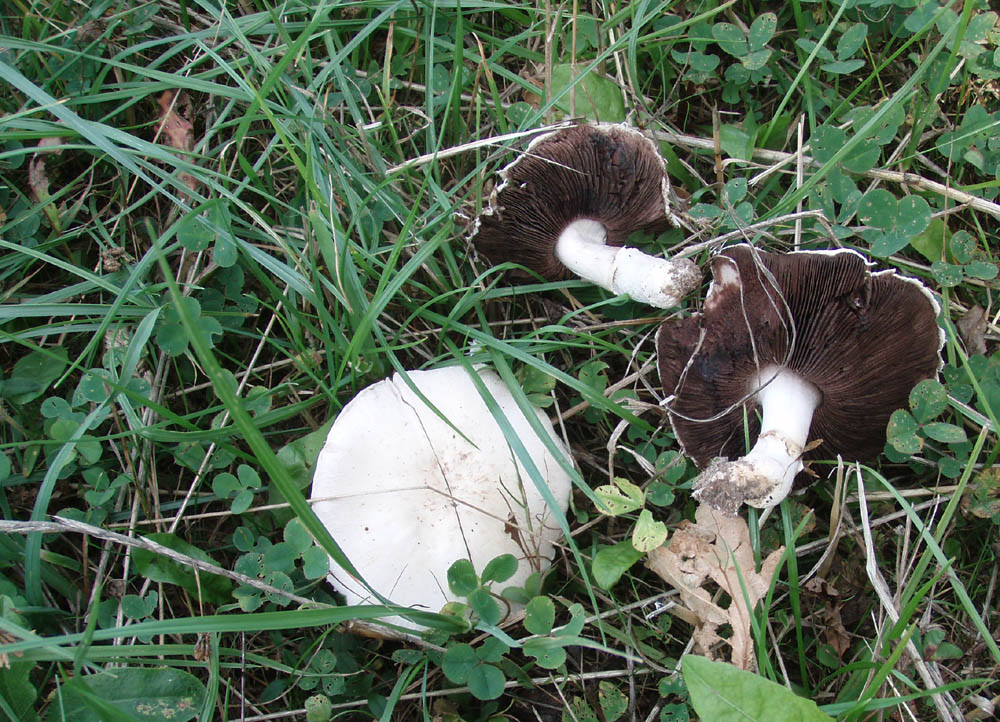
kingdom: Fungi
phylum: Basidiomycota
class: Agaricomycetes
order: Agaricales
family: Agaricaceae
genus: Agaricus
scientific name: Agaricus campestris
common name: mark-champignon
